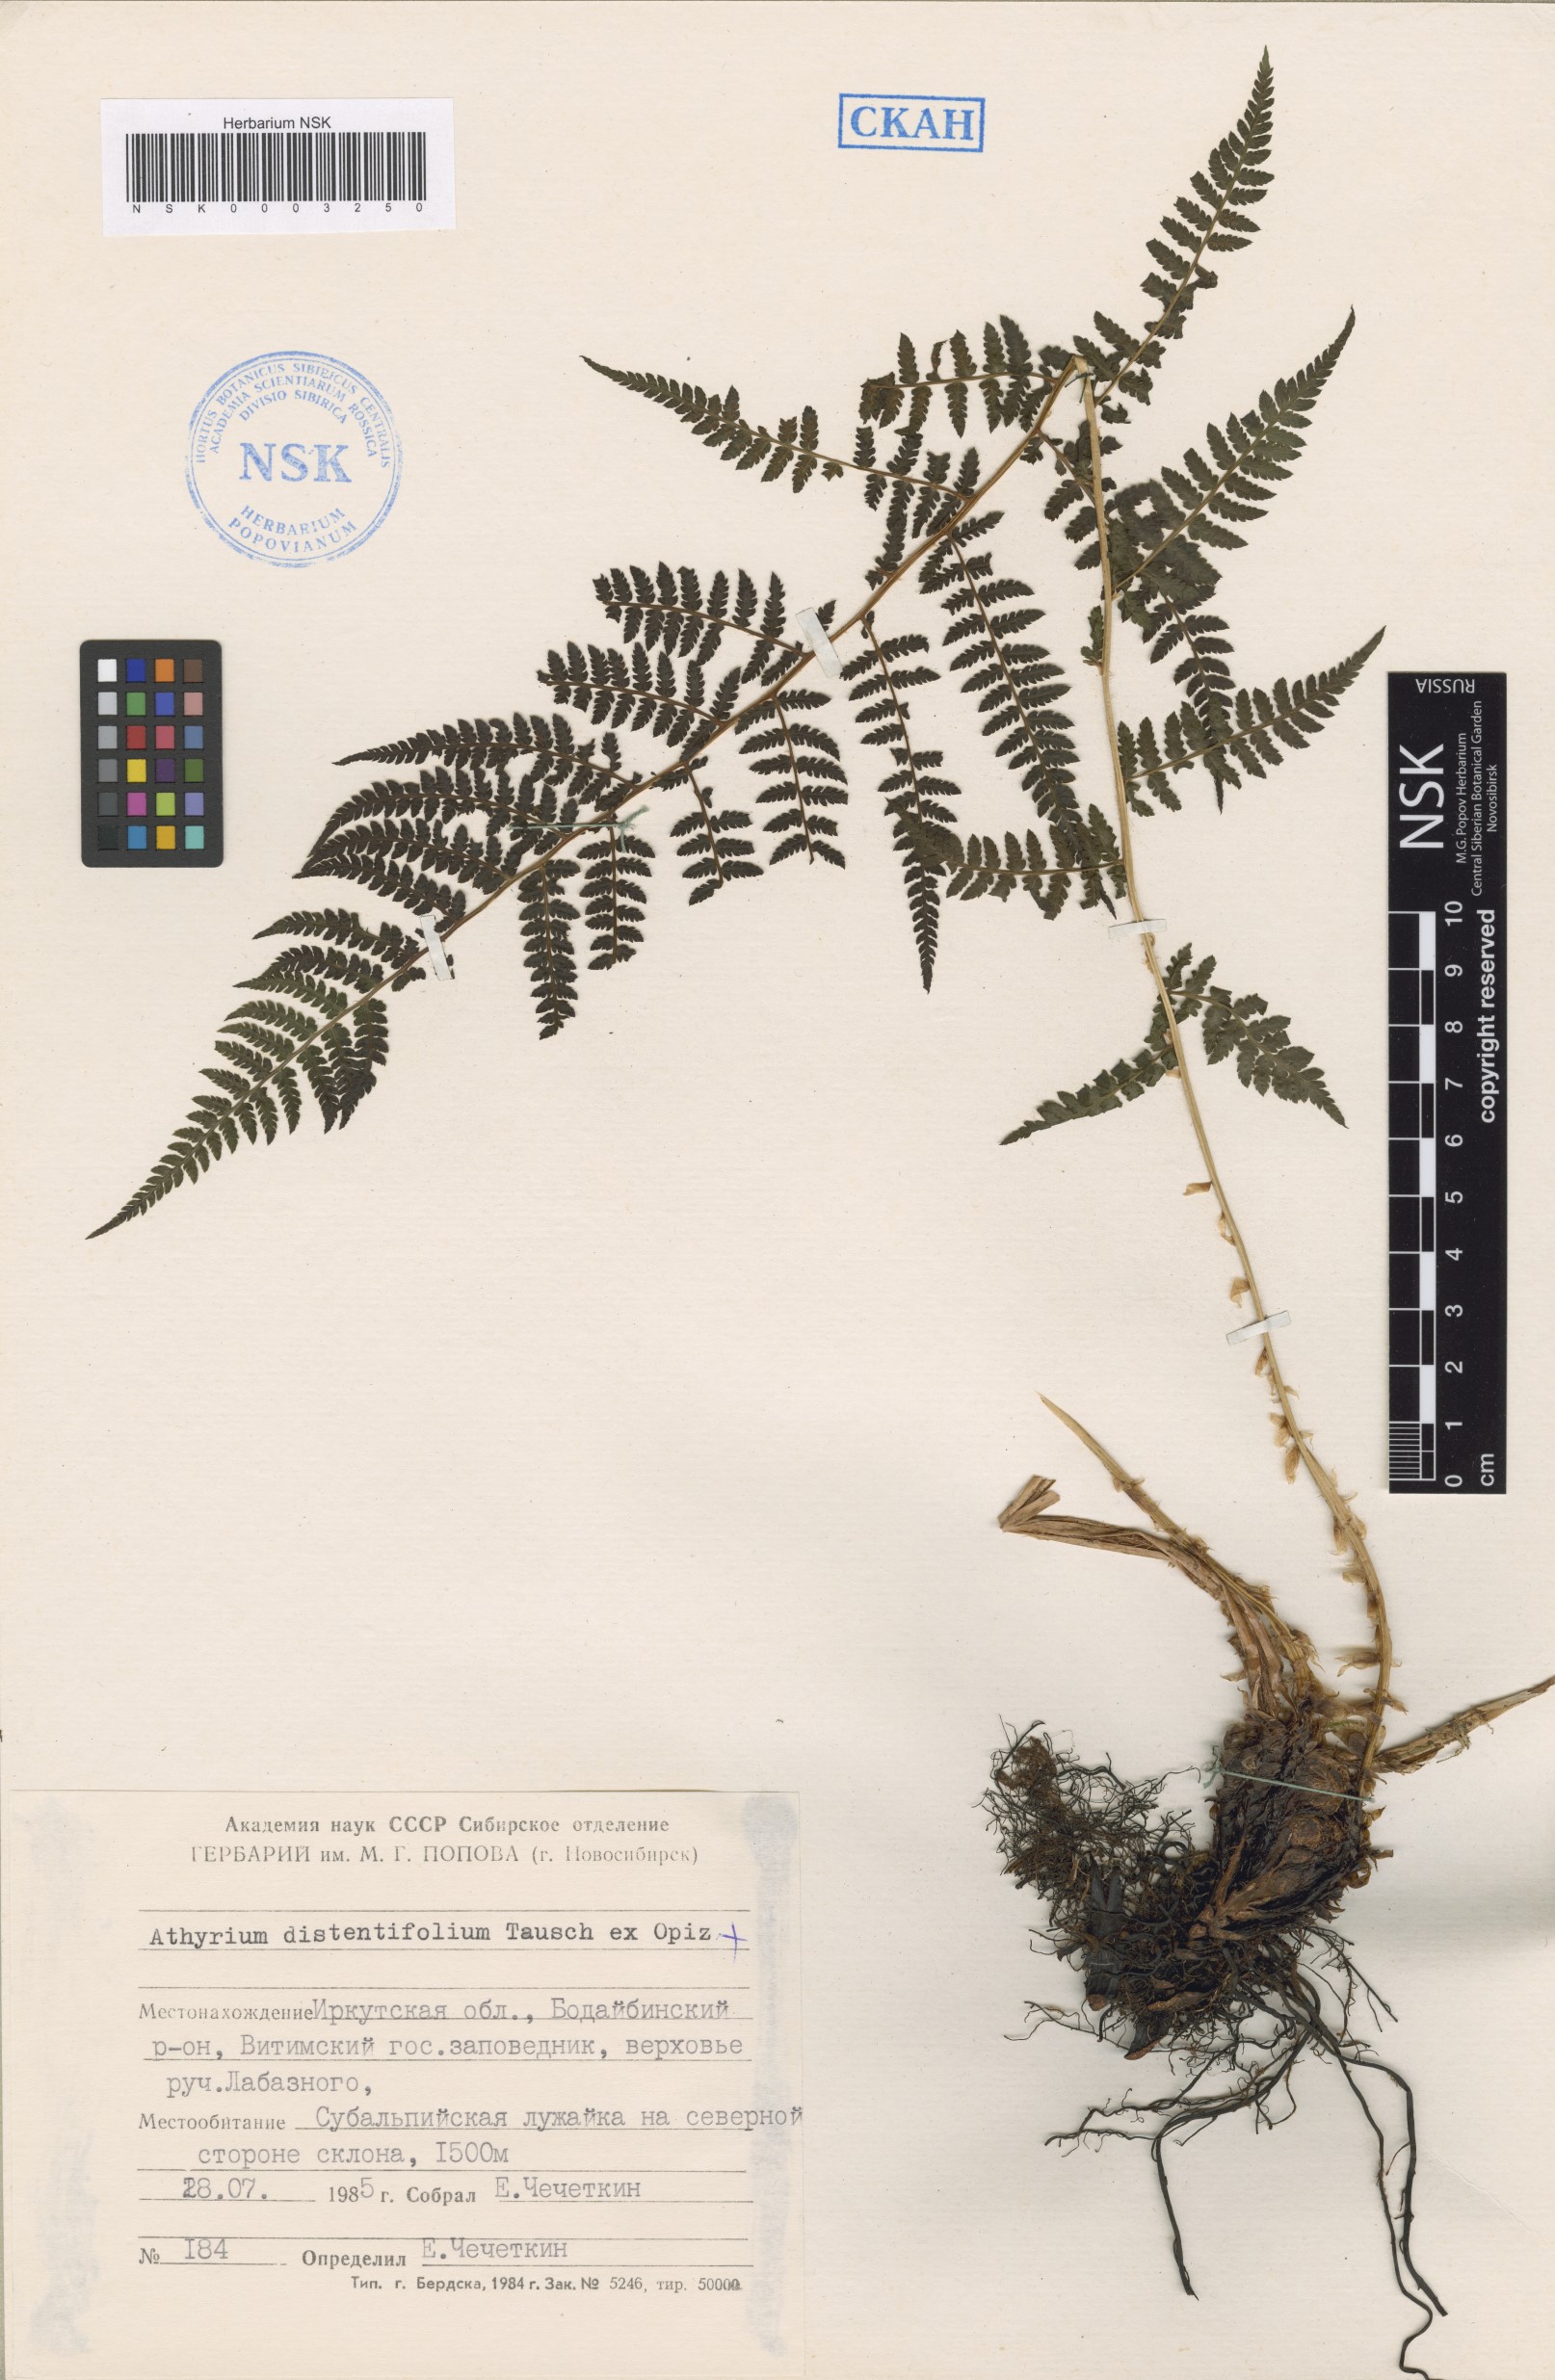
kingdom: Plantae
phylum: Tracheophyta
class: Polypodiopsida
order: Polypodiales
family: Athyriaceae
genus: Pseudathyrium
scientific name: Pseudathyrium alpestre
